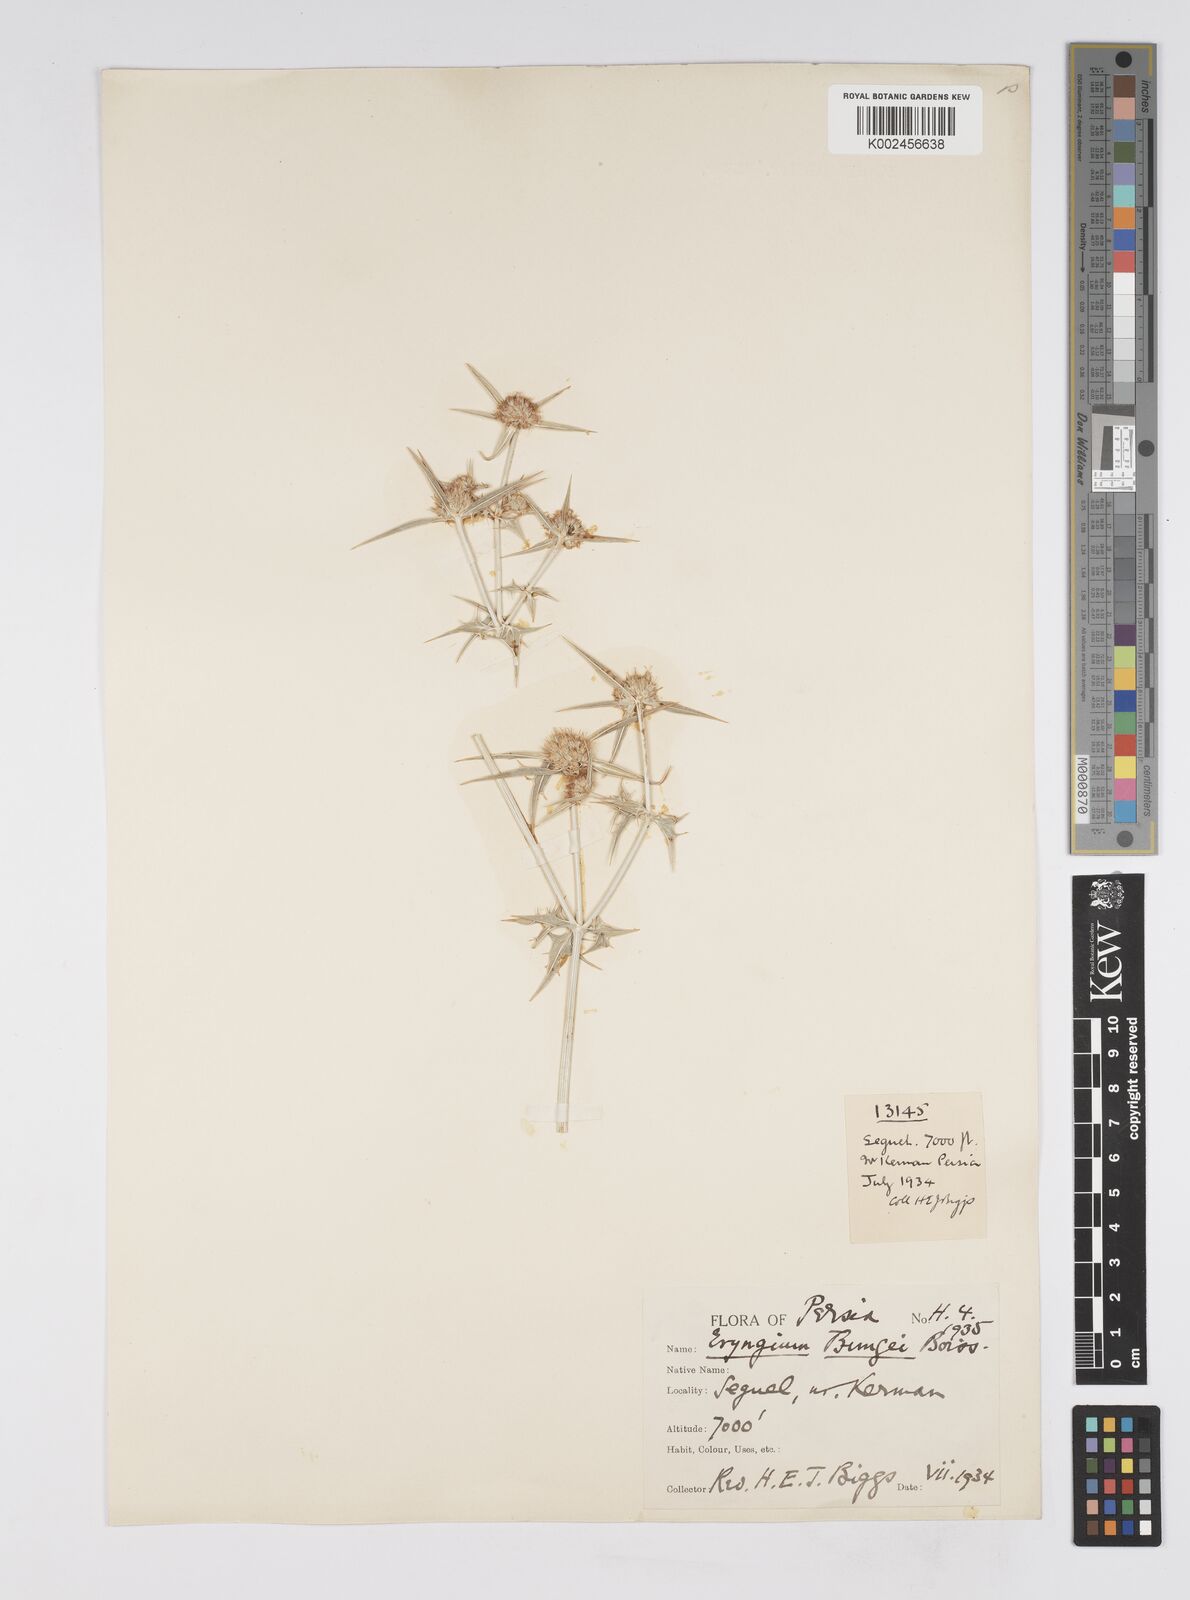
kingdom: Plantae
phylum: Tracheophyta
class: Magnoliopsida
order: Apiales
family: Apiaceae
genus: Eryngium
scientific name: Eryngium bungei
